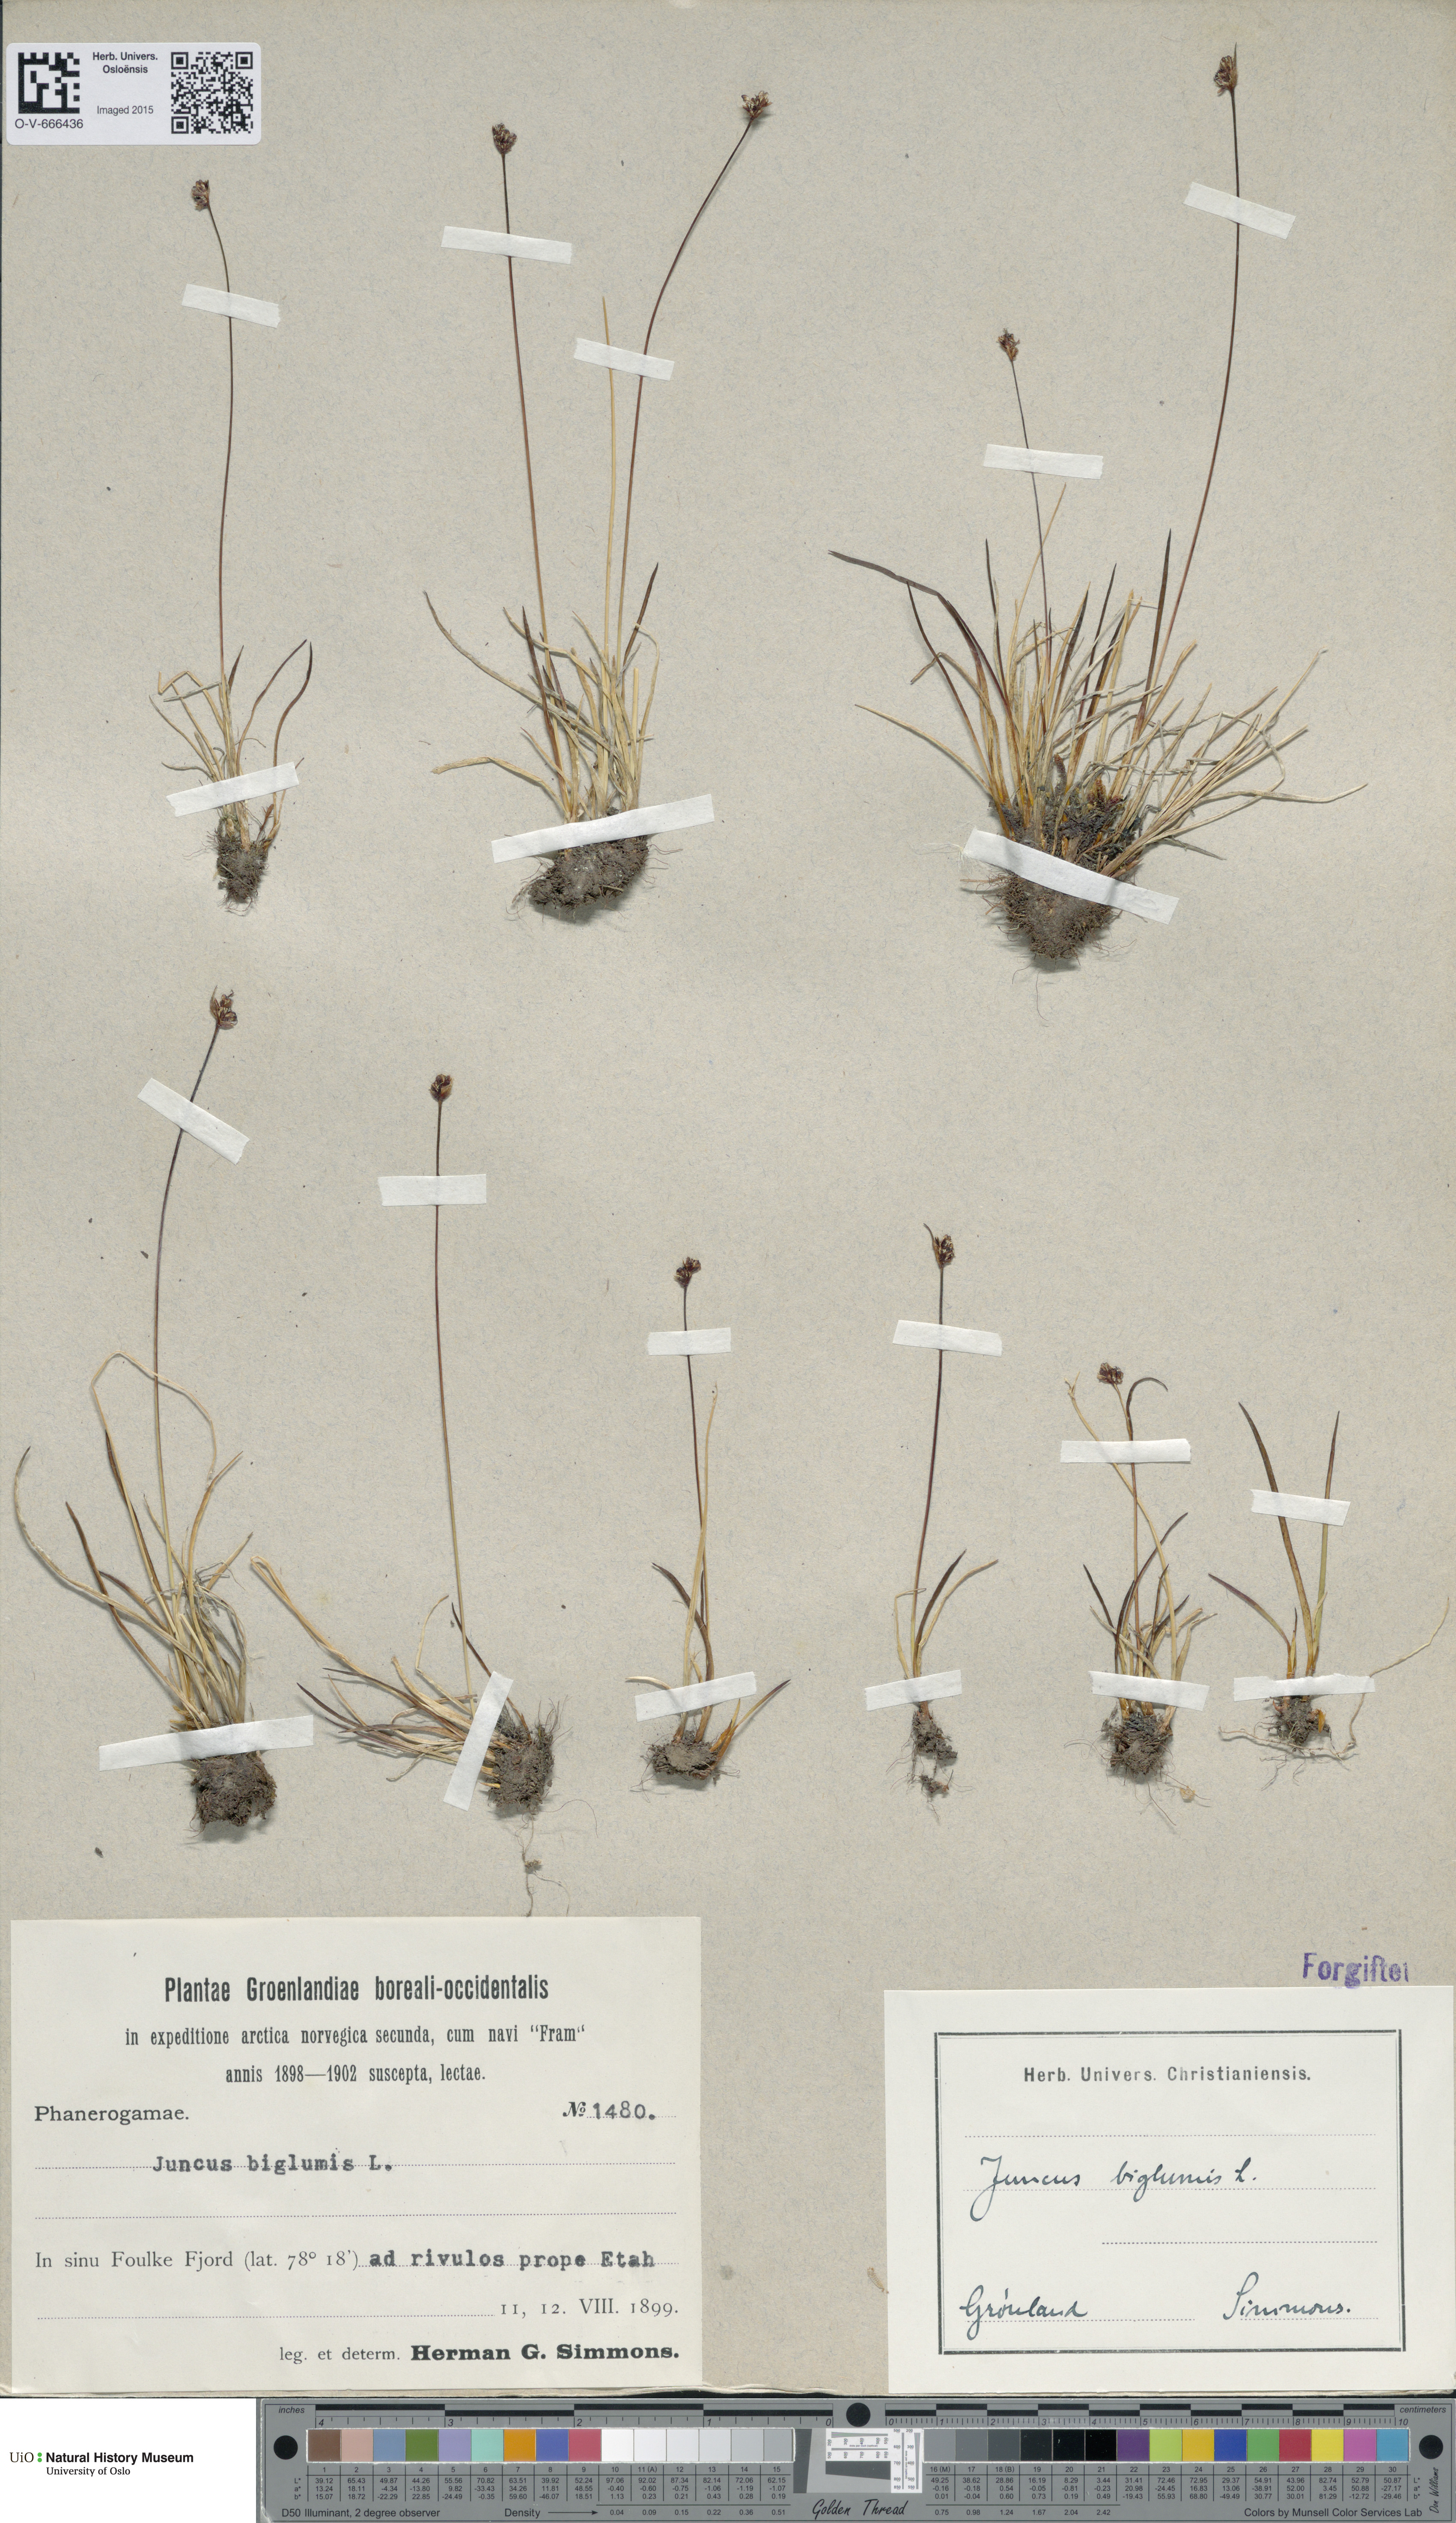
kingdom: Plantae
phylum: Tracheophyta
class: Liliopsida
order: Poales
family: Juncaceae
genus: Juncus
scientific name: Juncus biglumis
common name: Two-flowered rush
